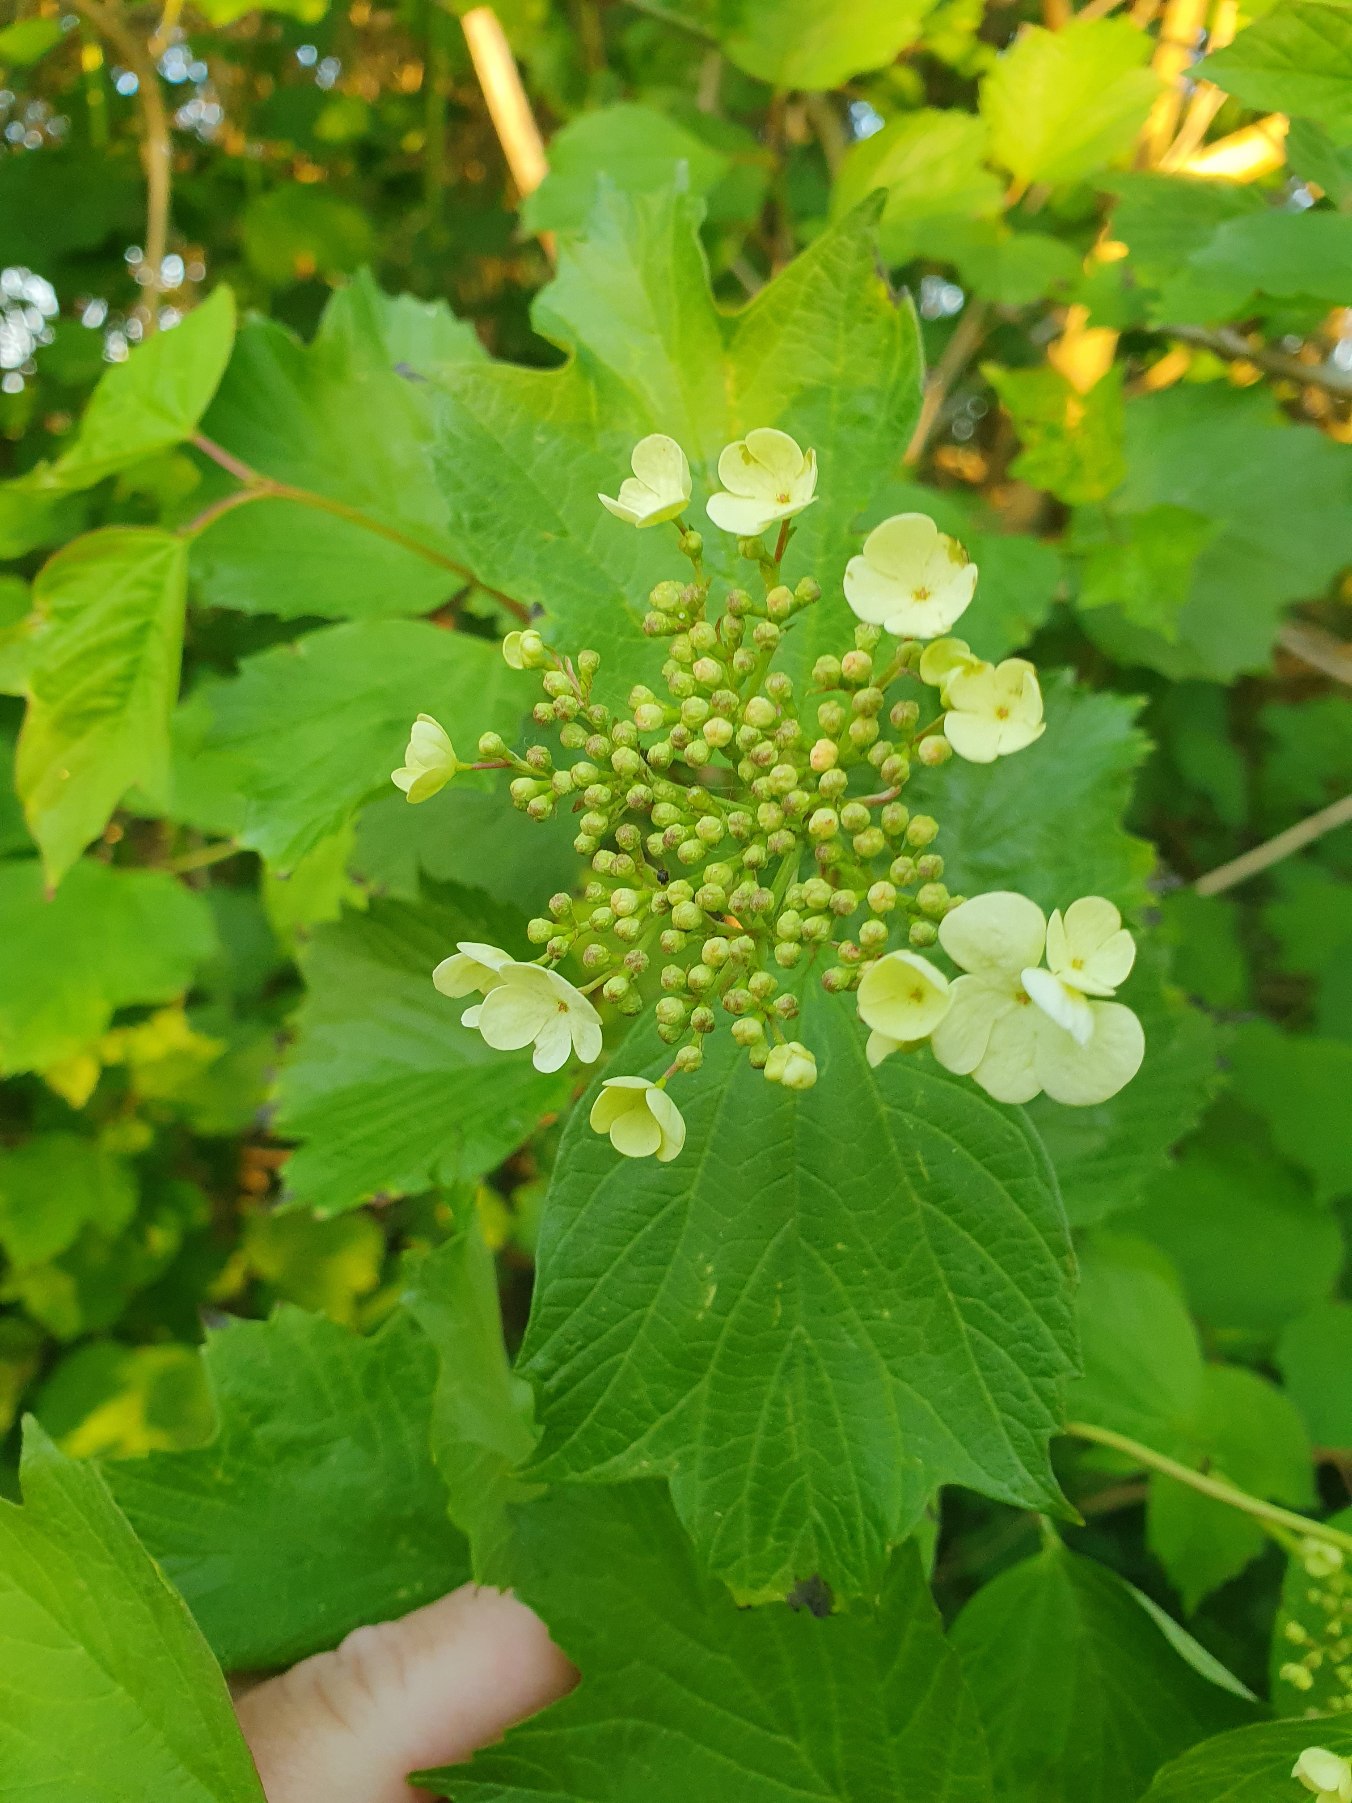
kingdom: Plantae
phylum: Tracheophyta
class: Magnoliopsida
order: Dipsacales
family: Viburnaceae
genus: Viburnum
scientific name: Viburnum opulus
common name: Kvalkved
